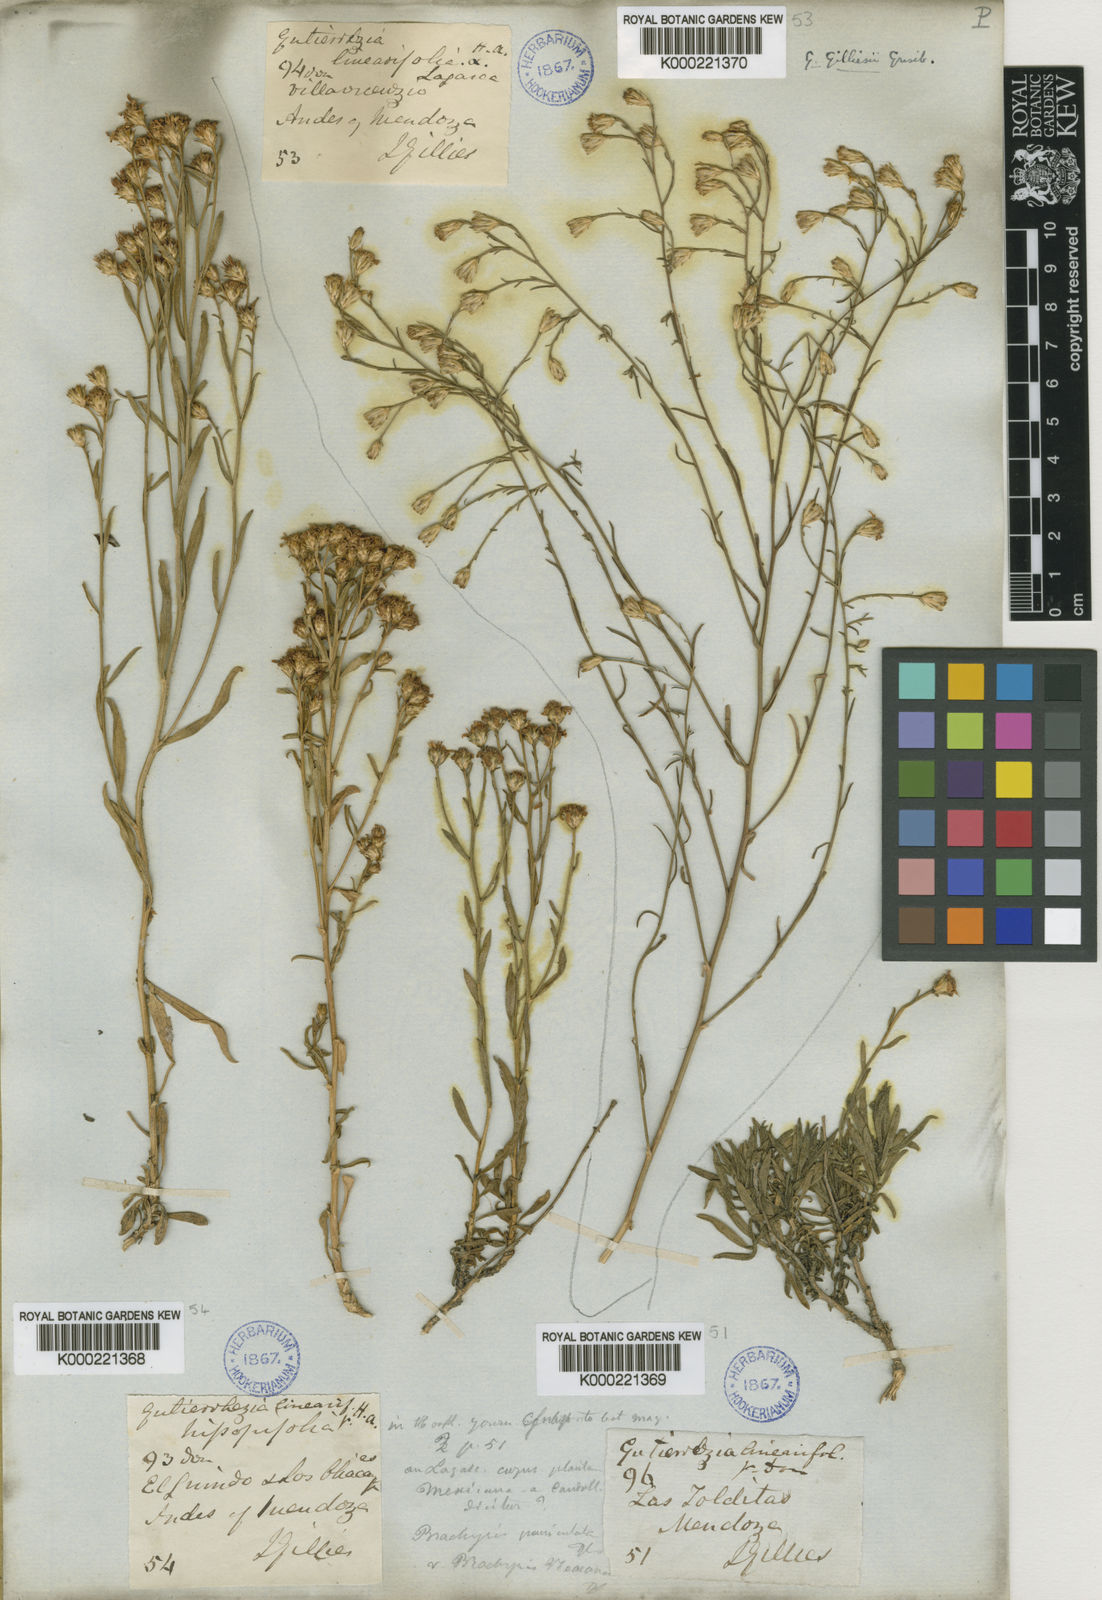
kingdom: Plantae
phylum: Tracheophyta
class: Magnoliopsida
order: Asterales
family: Asteraceae
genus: Gutierrezia
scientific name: Gutierrezia gilliesii
